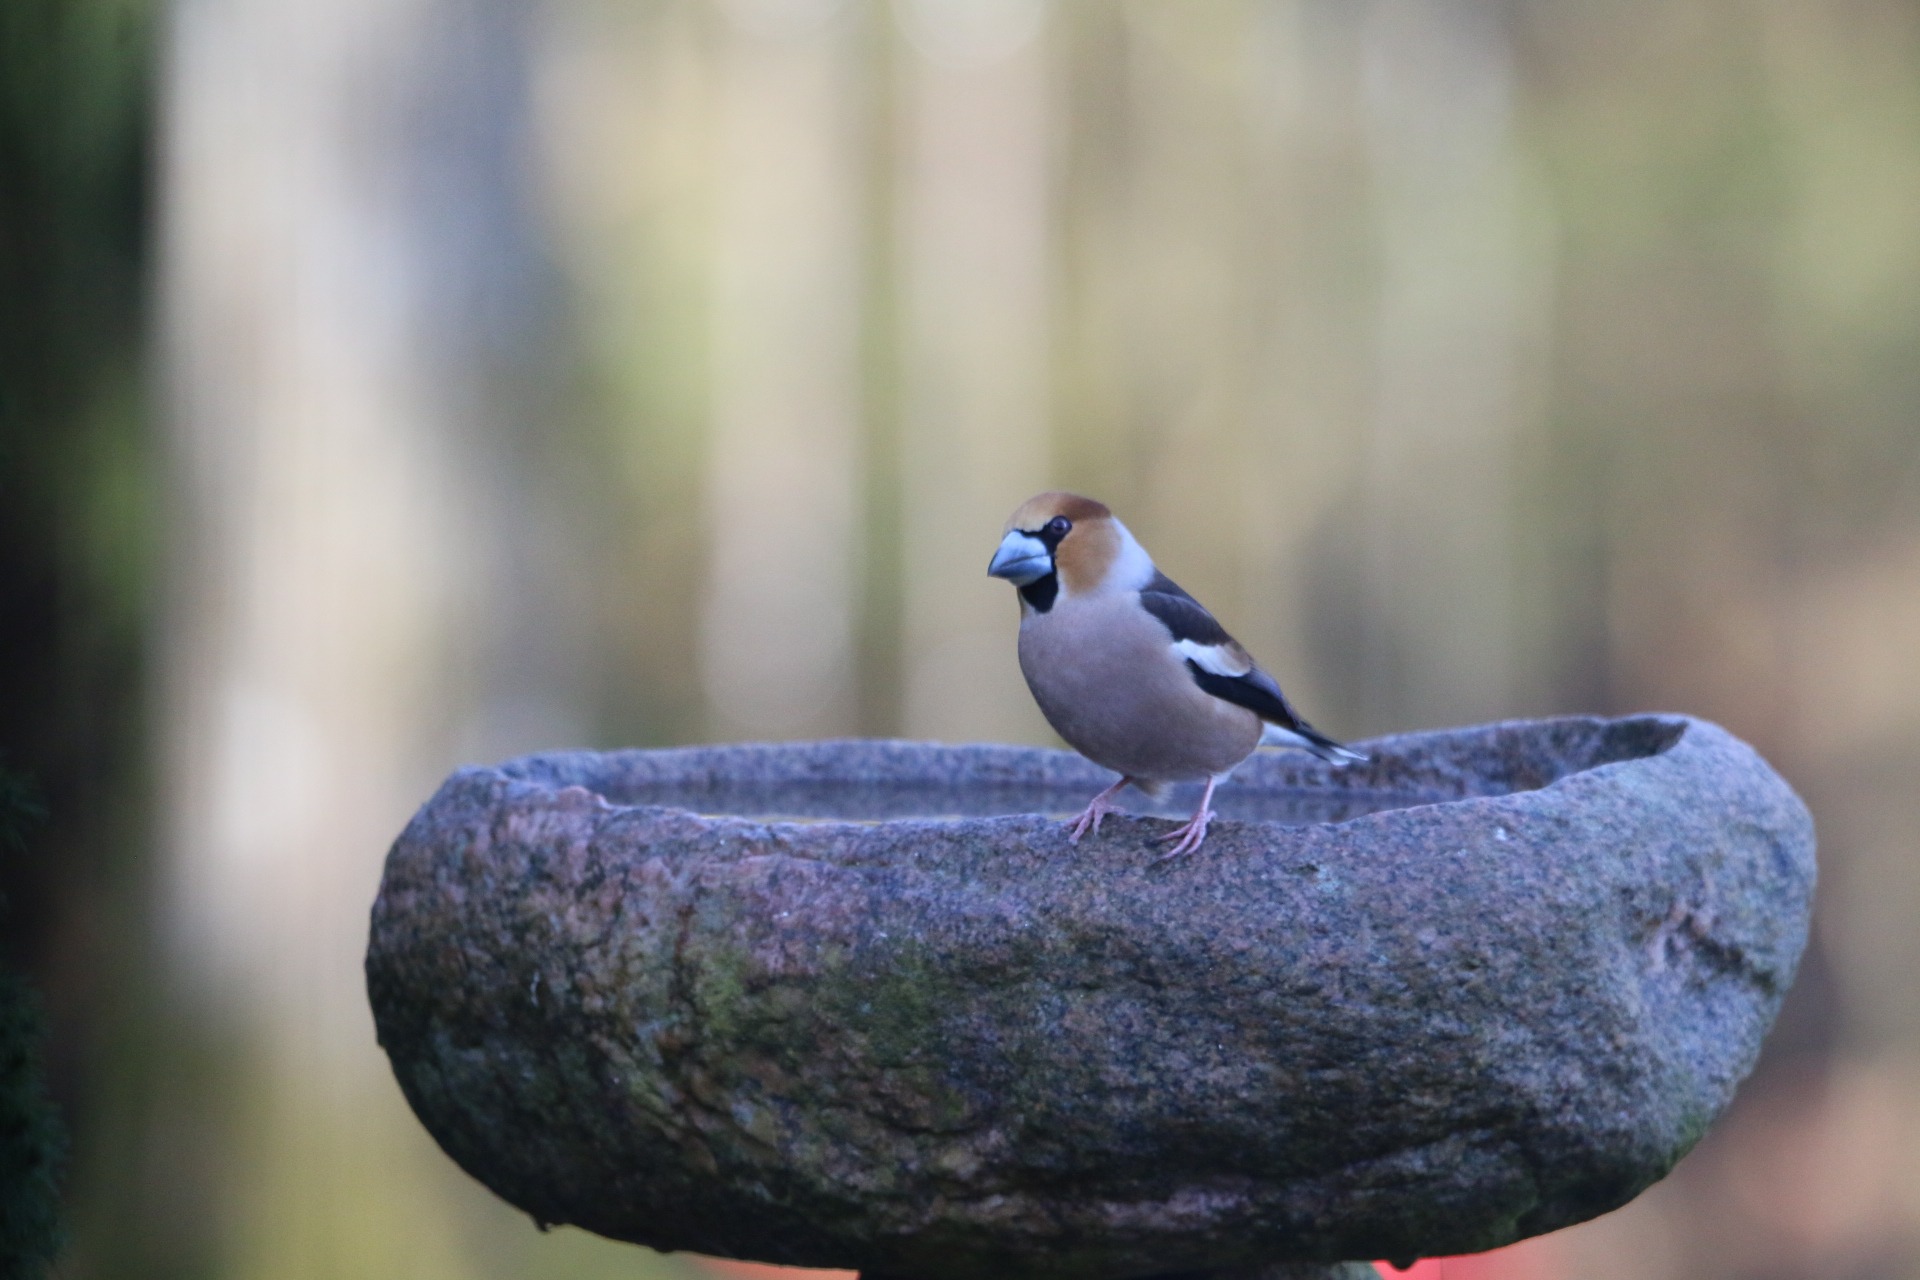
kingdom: Animalia
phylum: Chordata
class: Aves
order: Passeriformes
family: Fringillidae
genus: Coccothraustes
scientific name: Coccothraustes coccothraustes
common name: Kernebider
